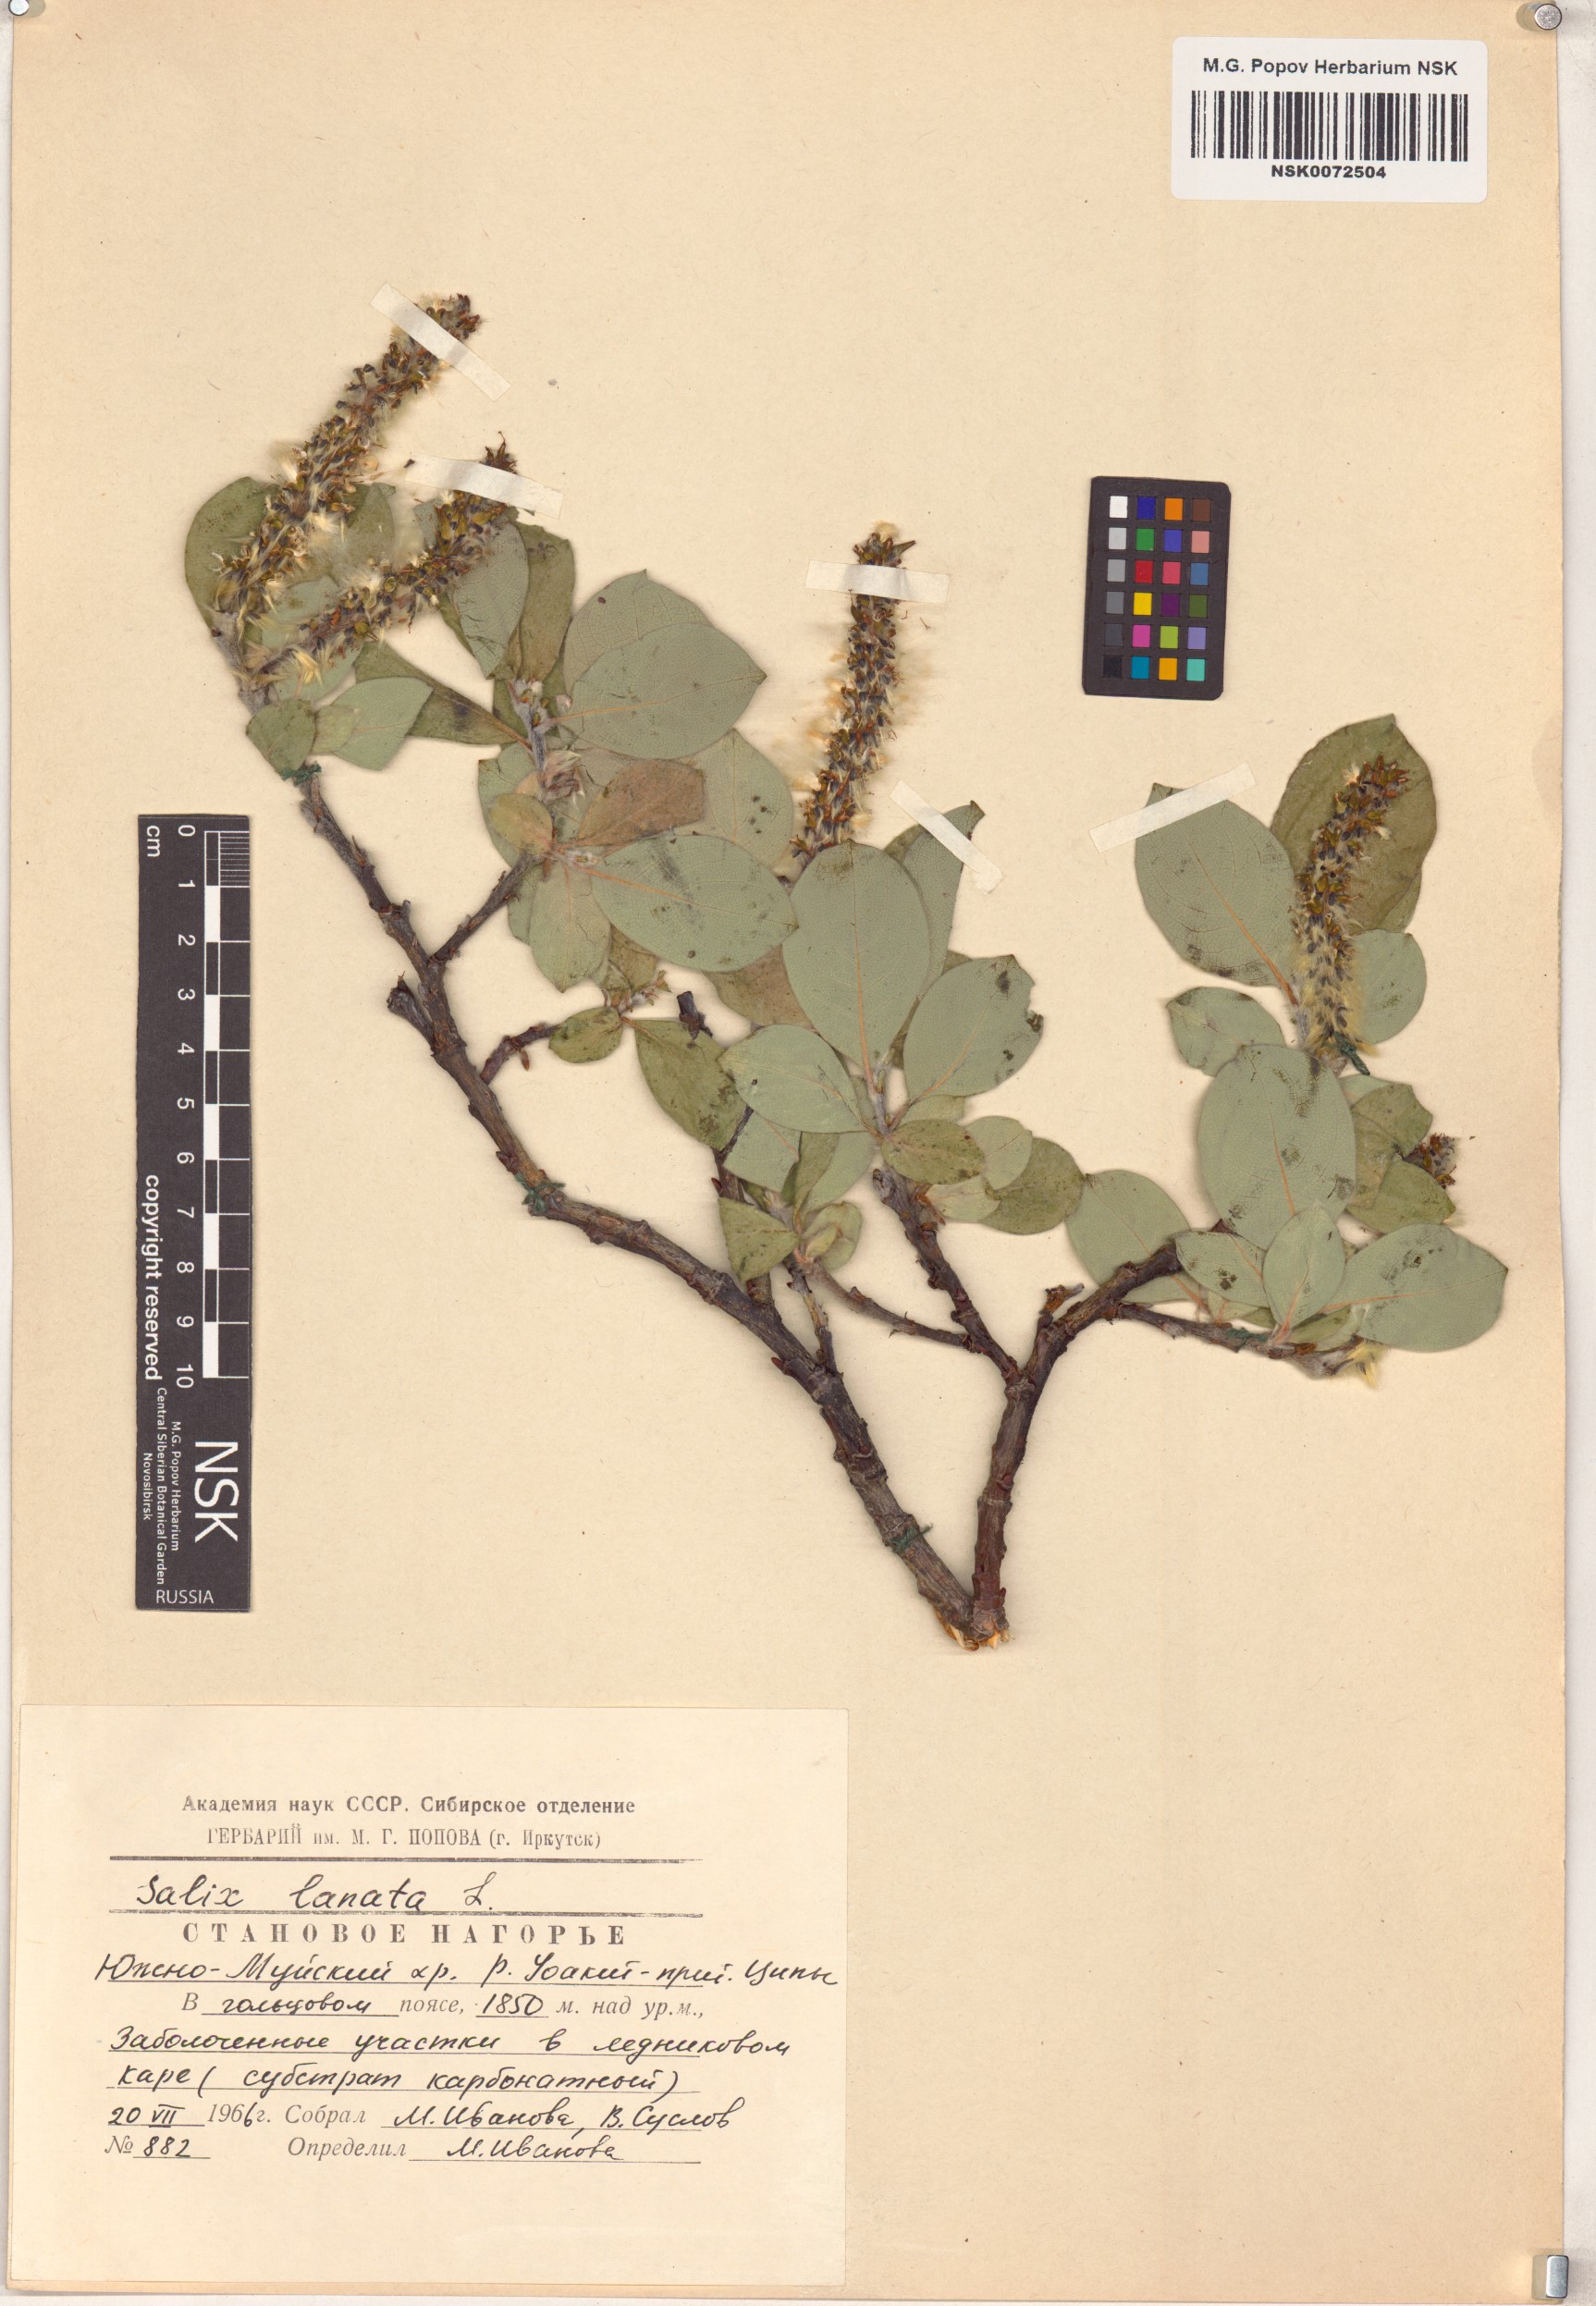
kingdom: Plantae
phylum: Tracheophyta
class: Magnoliopsida
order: Malpighiales
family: Salicaceae
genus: Salix
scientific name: Salix lanata
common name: Woolly willow
